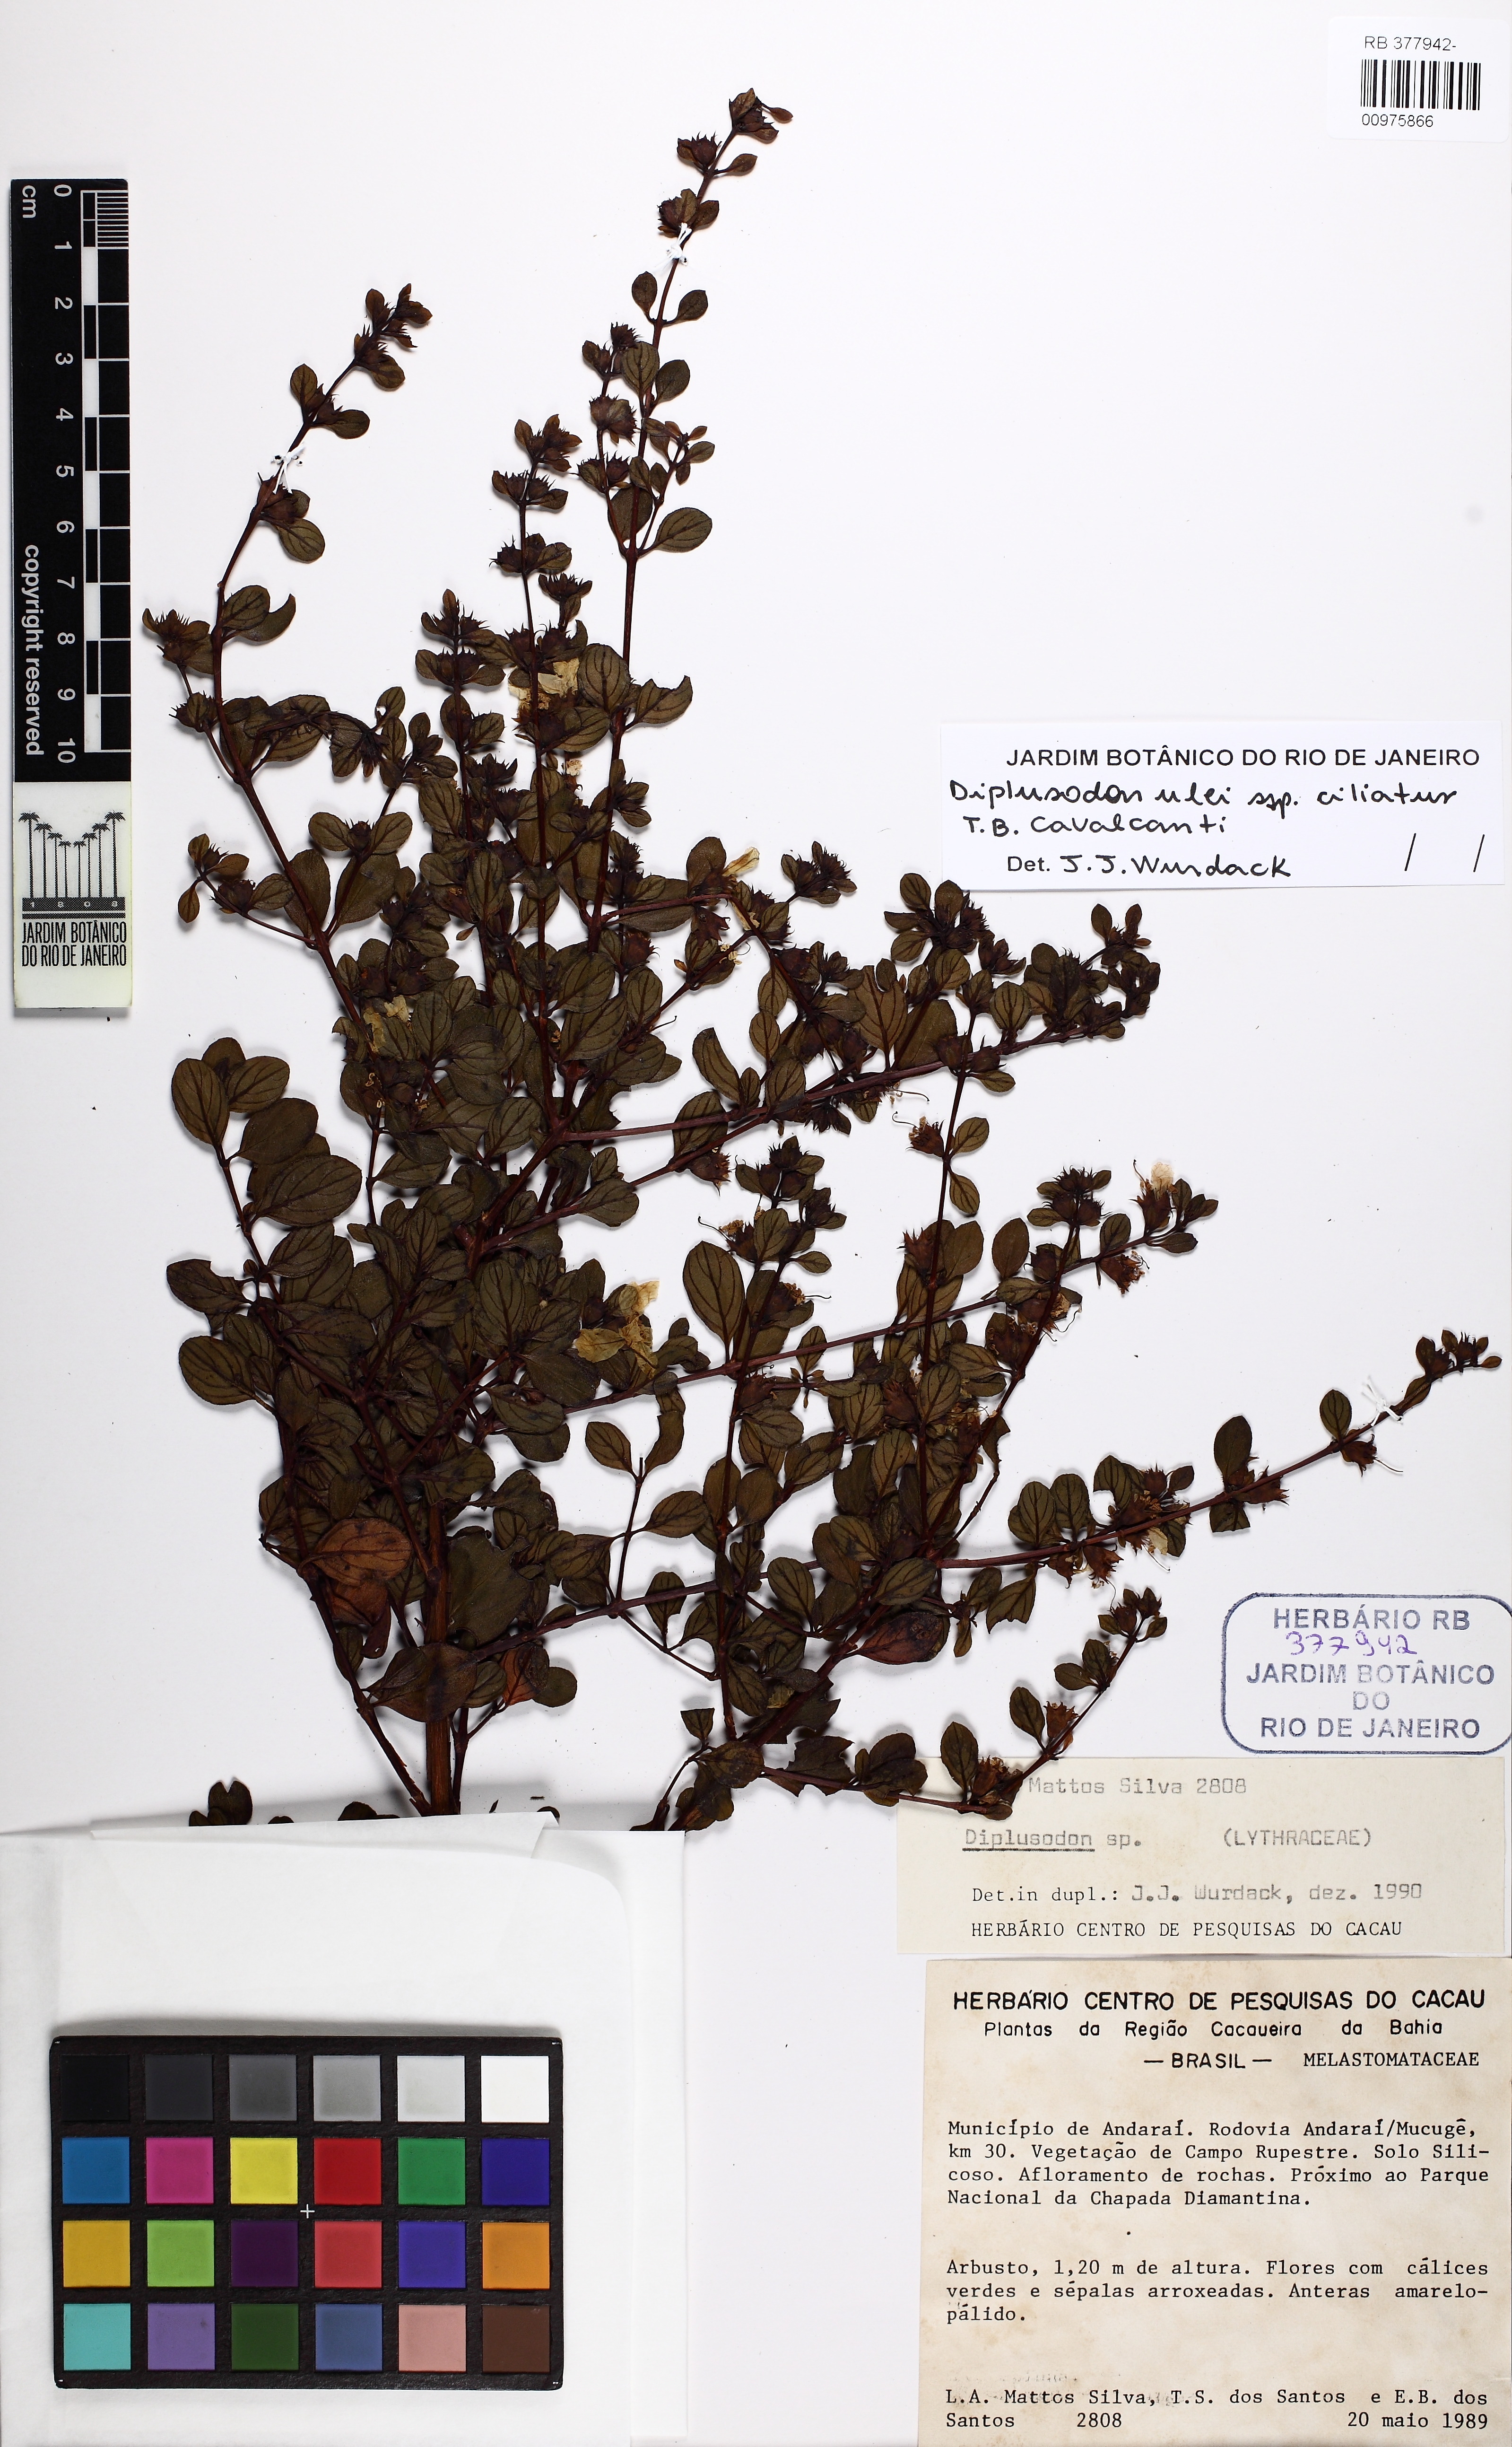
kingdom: Plantae
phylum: Tracheophyta
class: Magnoliopsida
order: Myrtales
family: Lythraceae
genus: Diplusodon
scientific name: Diplusodon ciliatus
